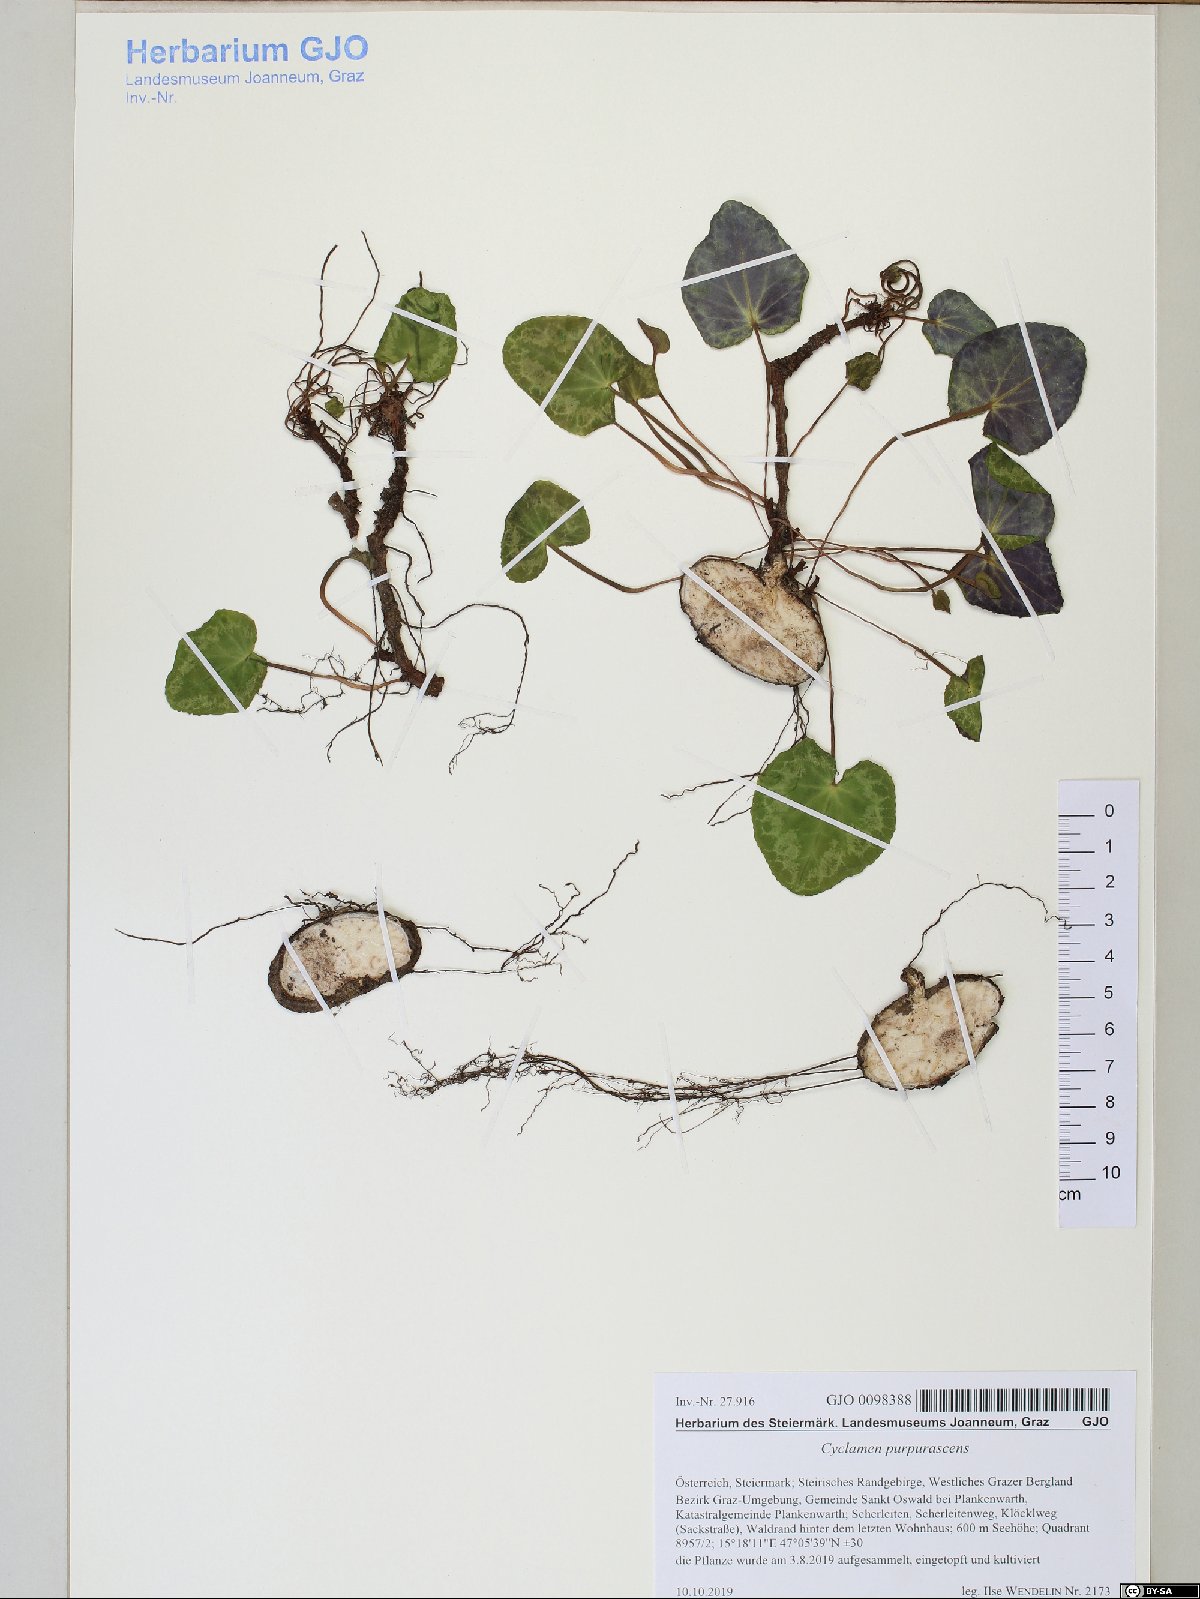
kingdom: Plantae
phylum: Tracheophyta
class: Magnoliopsida
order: Ericales
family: Primulaceae
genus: Cyclamen
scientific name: Cyclamen purpurascens
